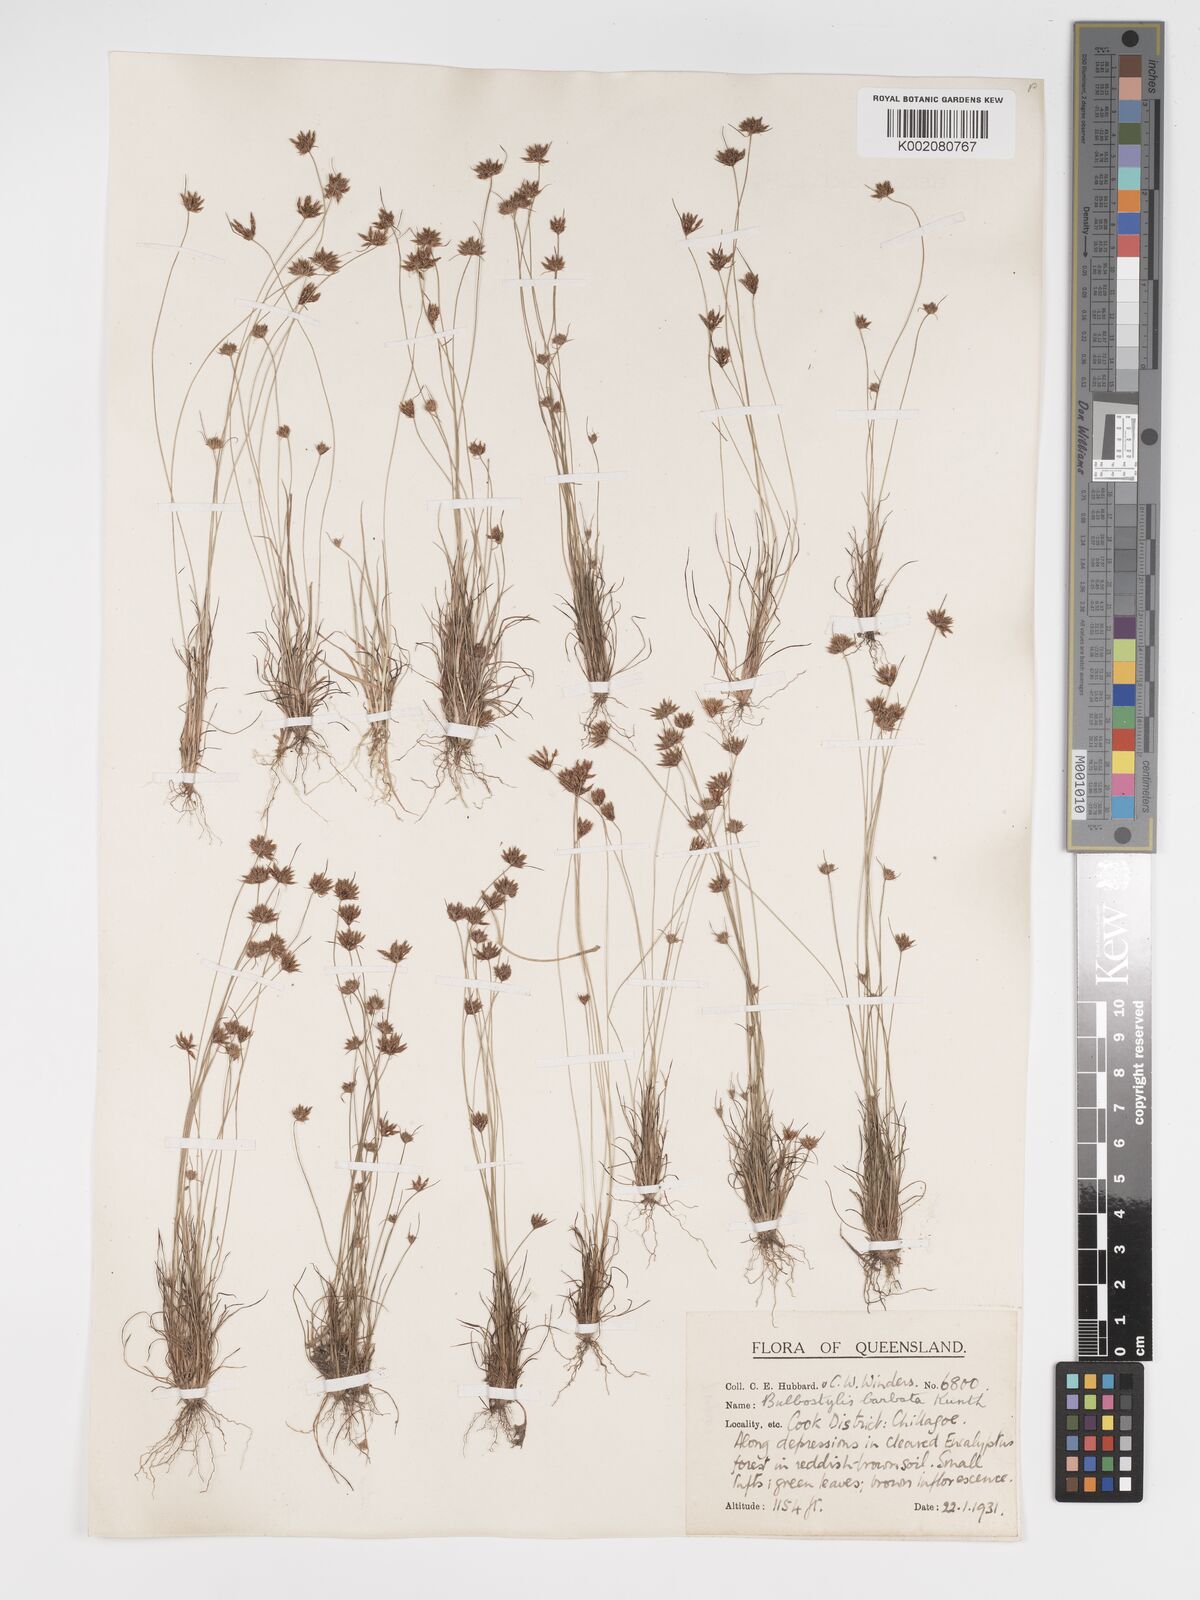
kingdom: Plantae
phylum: Tracheophyta
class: Liliopsida
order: Poales
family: Cyperaceae
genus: Bulbostylis
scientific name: Bulbostylis barbata
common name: Watergrass
